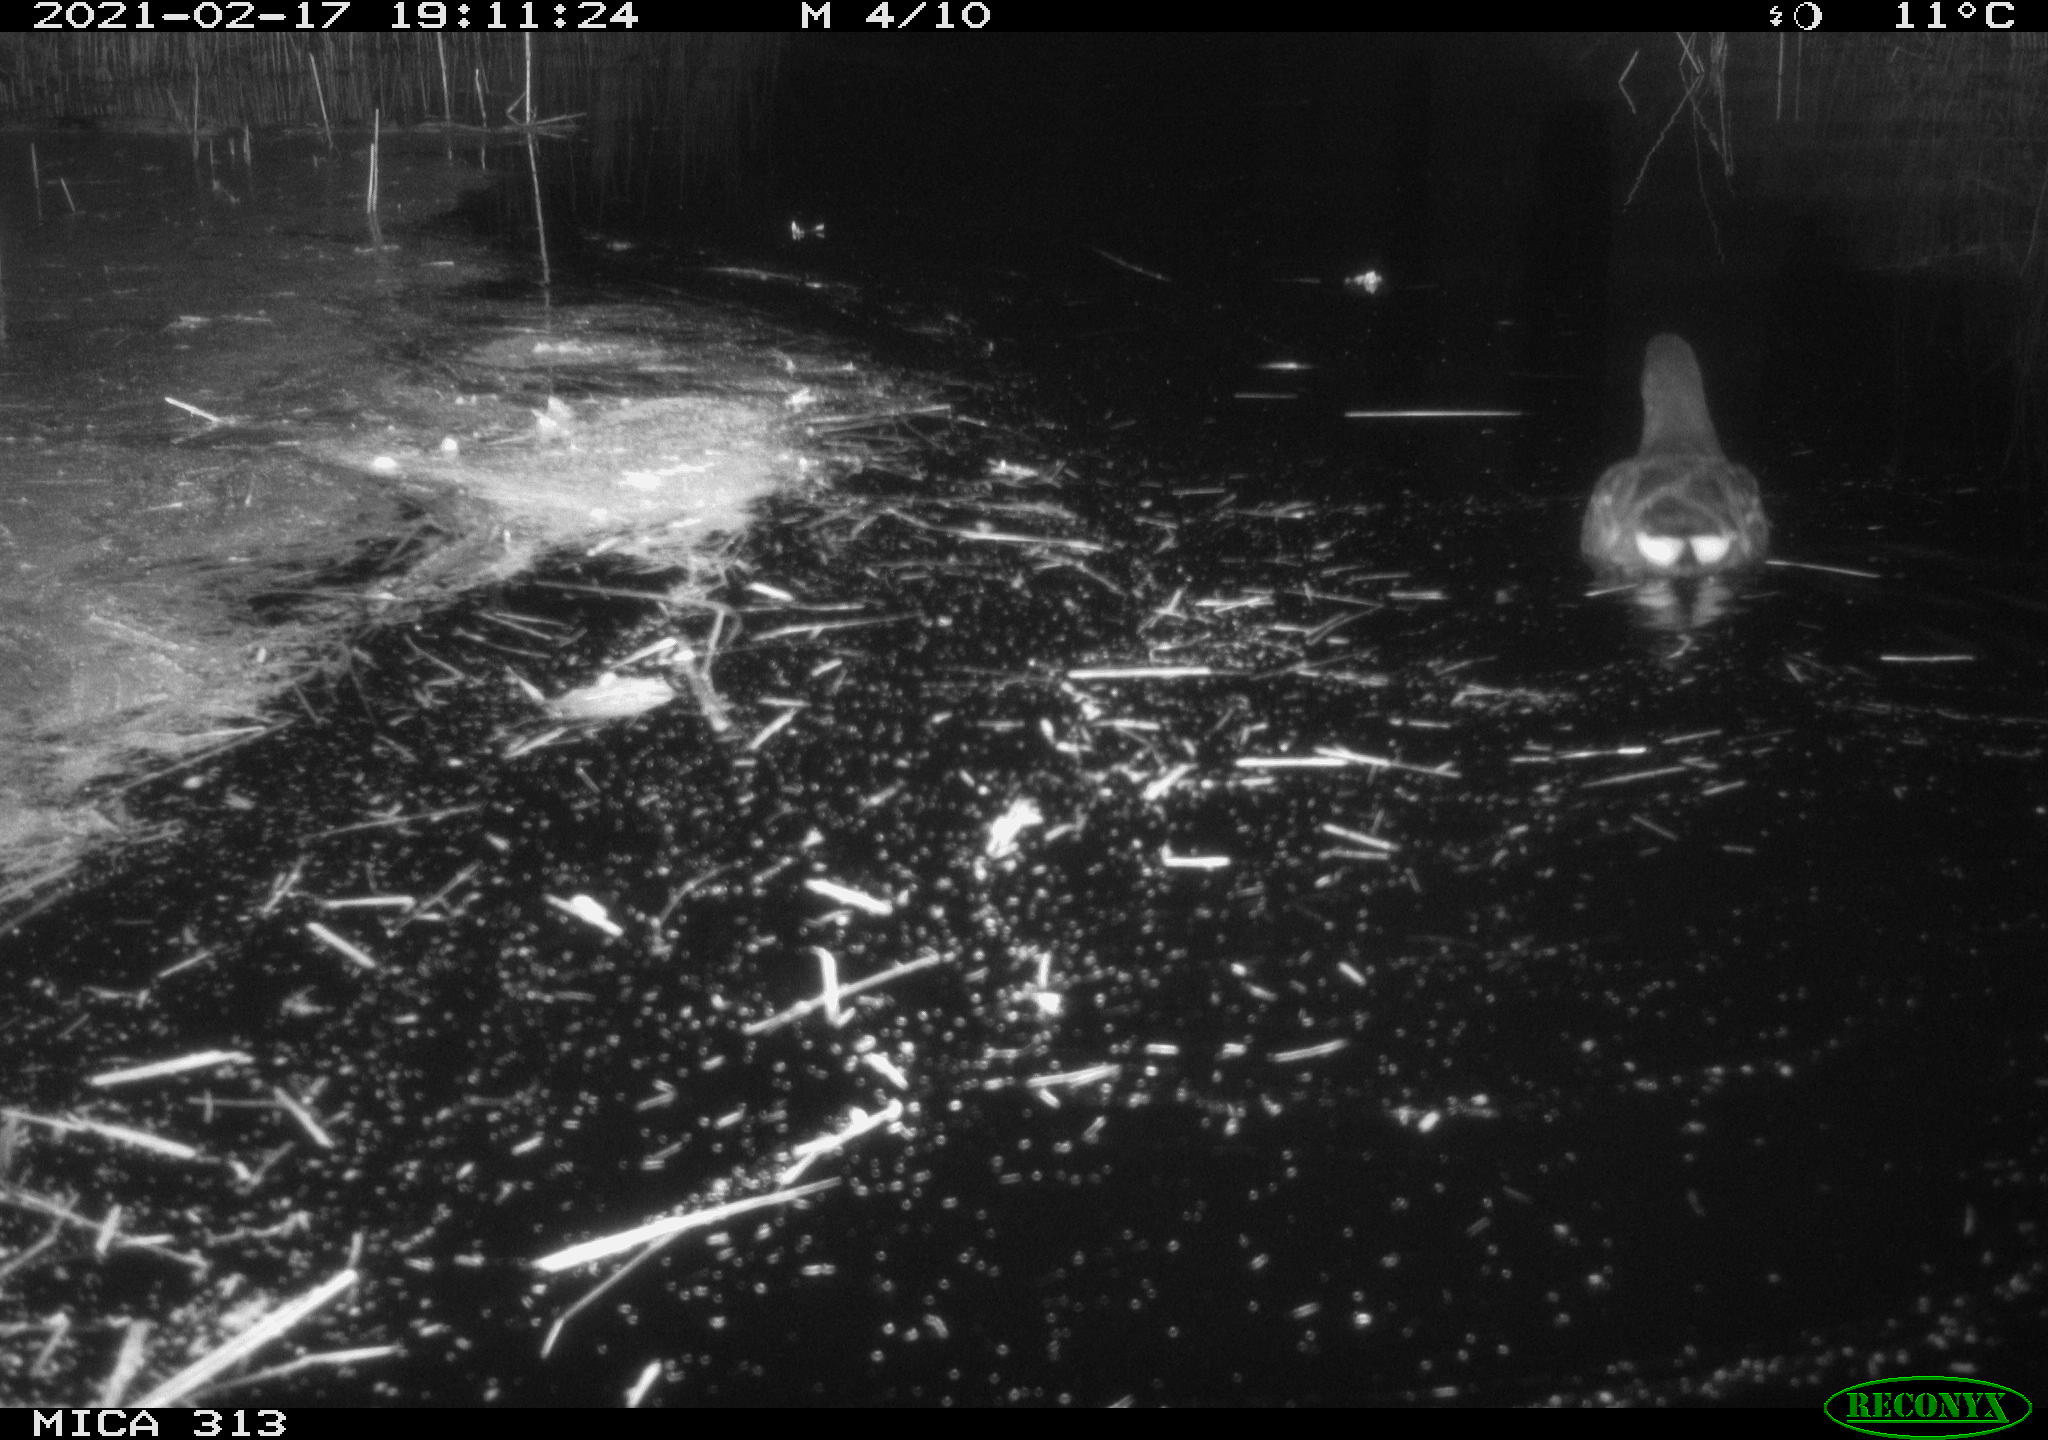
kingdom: Animalia
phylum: Chordata
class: Aves
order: Gruiformes
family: Rallidae
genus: Gallinula
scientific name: Gallinula chloropus
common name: Common moorhen
